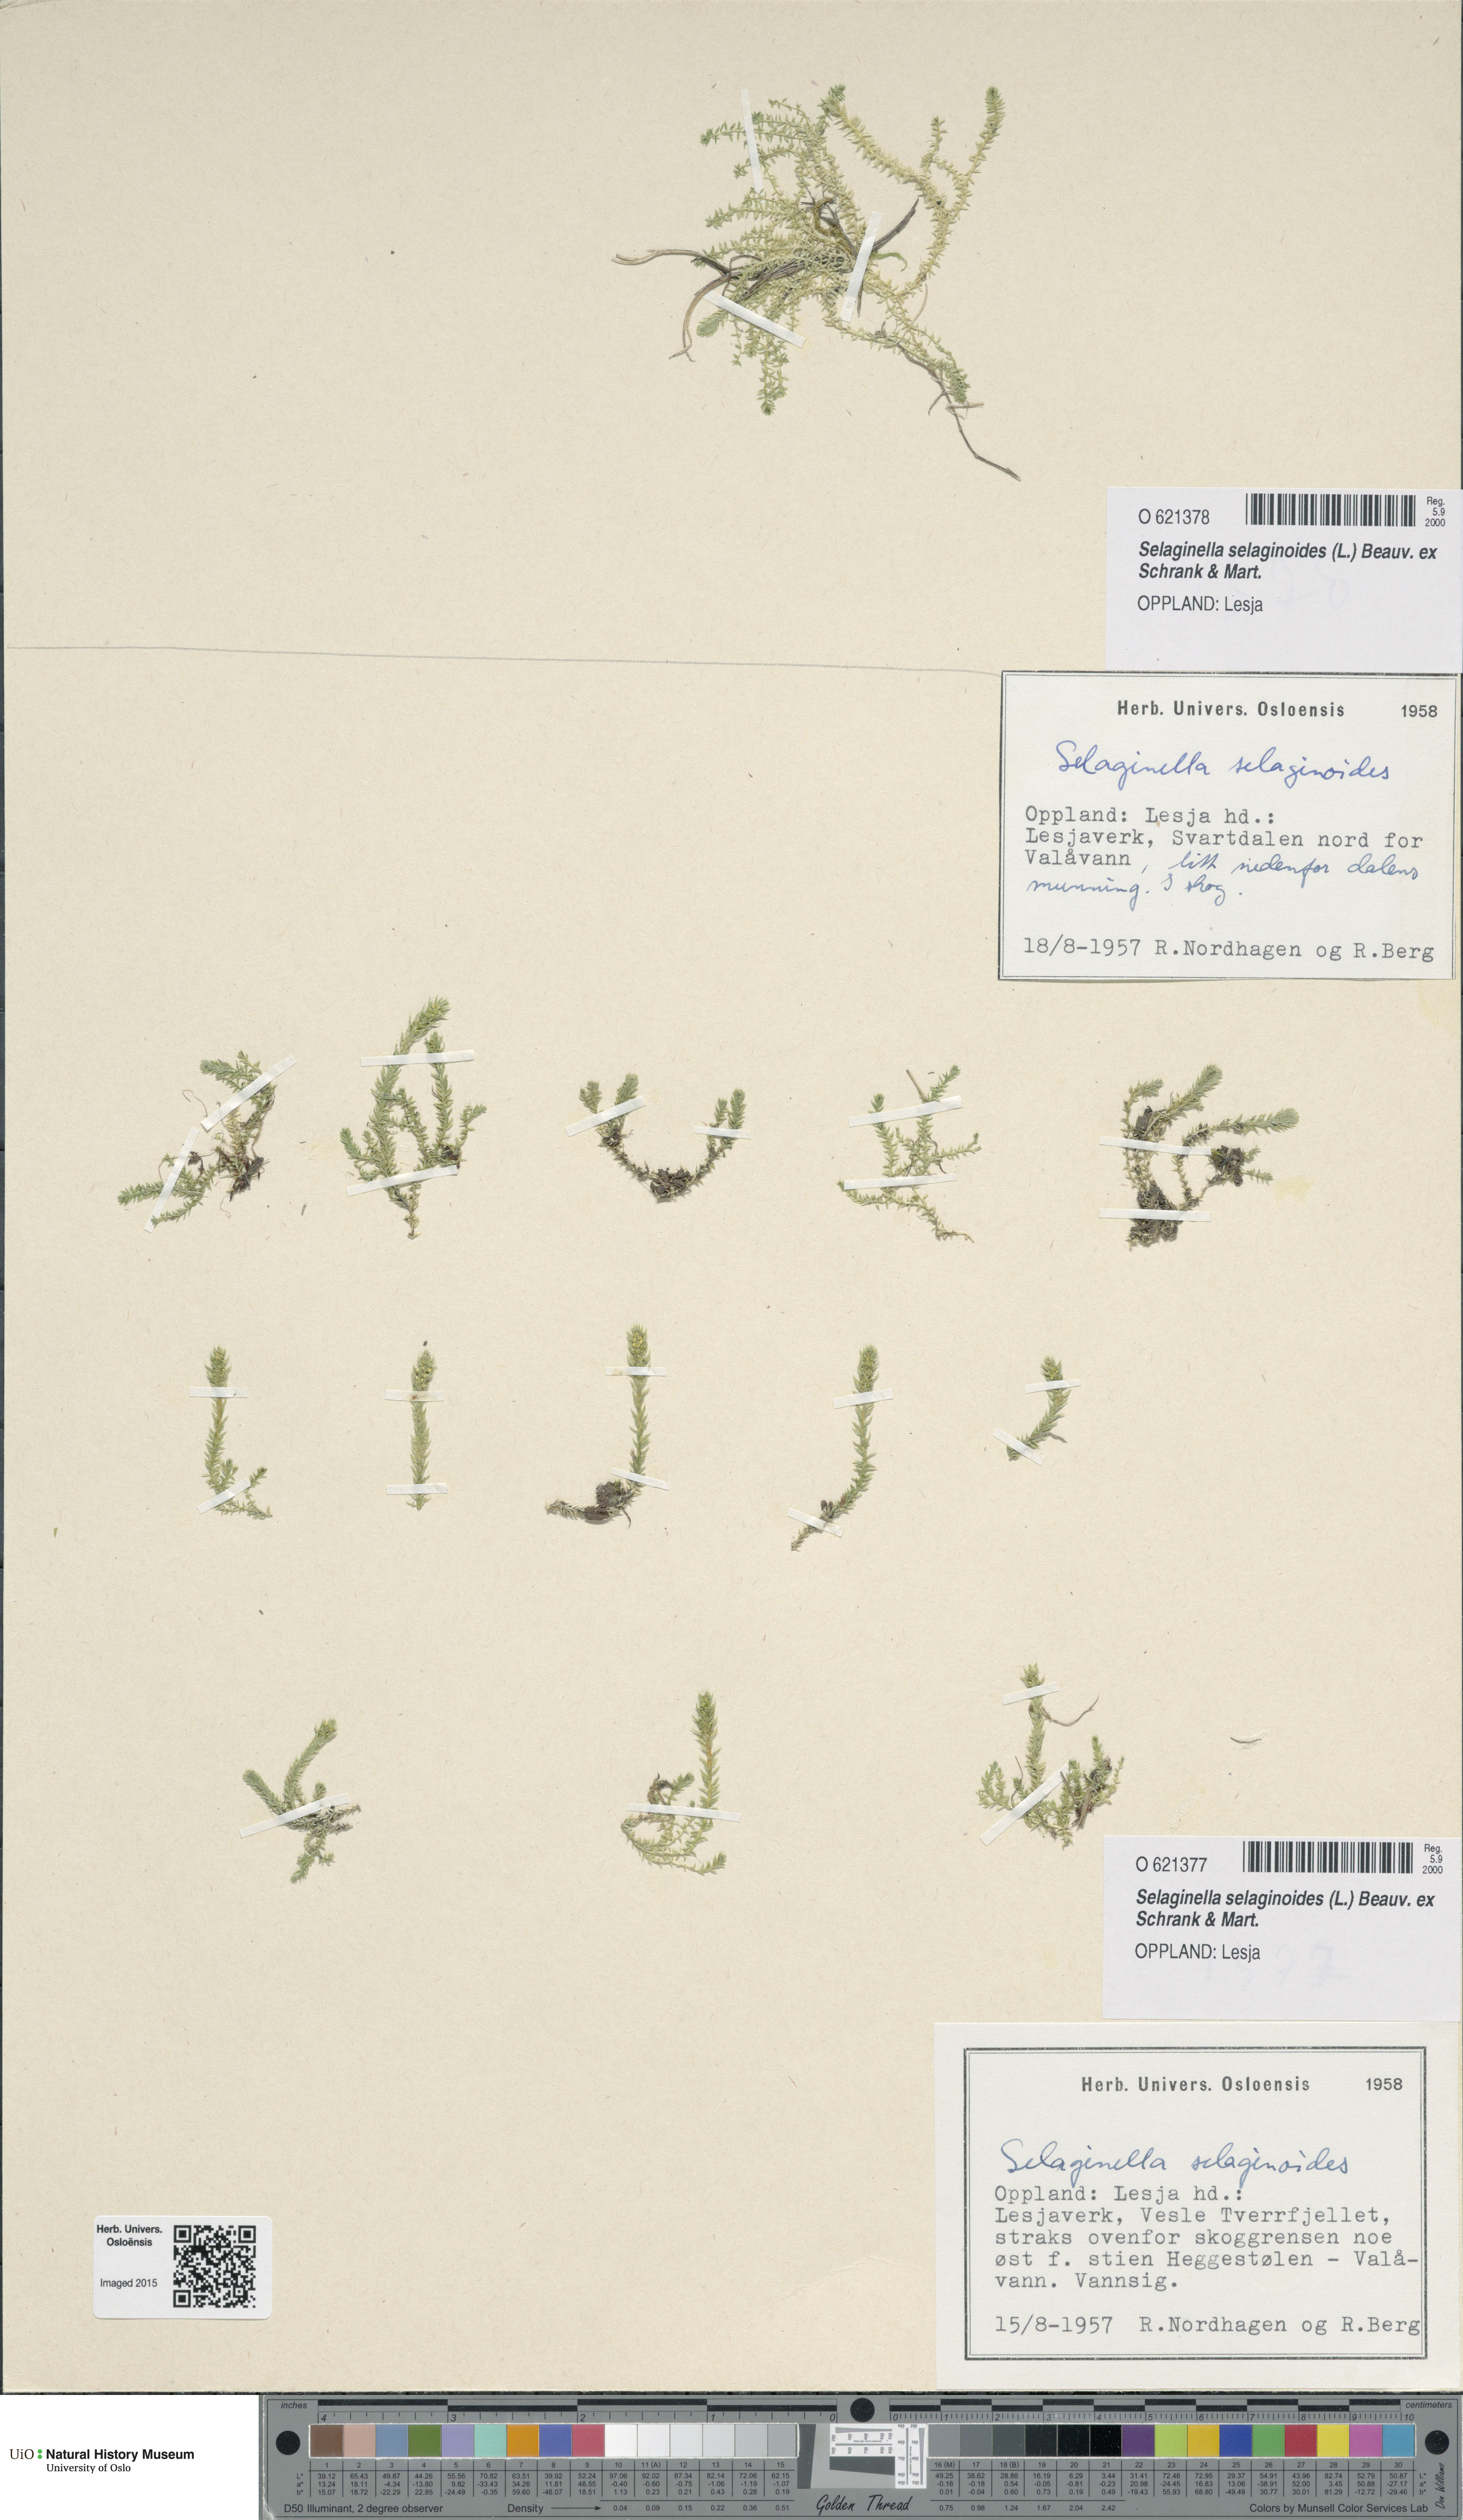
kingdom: Plantae
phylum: Tracheophyta
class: Lycopodiopsida
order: Selaginellales
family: Selaginellaceae
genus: Selaginella
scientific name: Selaginella selaginoides
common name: Prickly mountain-moss
